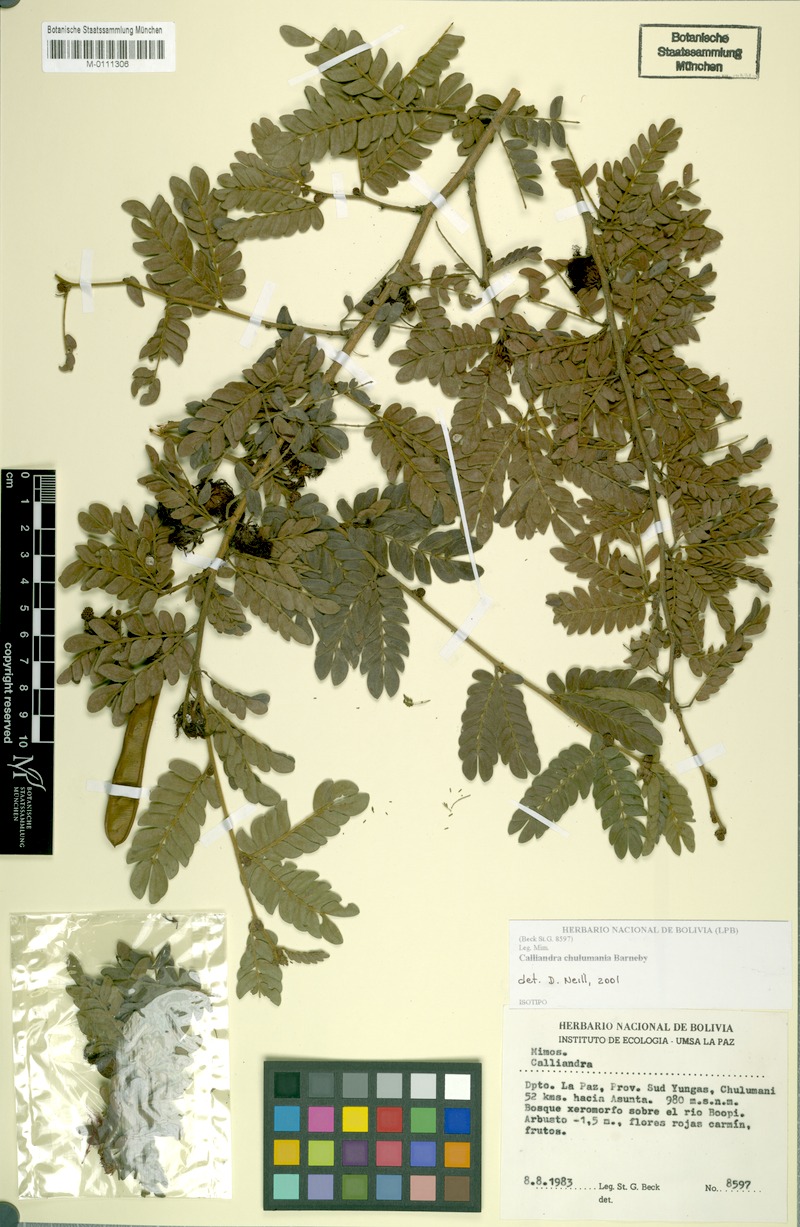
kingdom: Plantae
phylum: Tracheophyta
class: Magnoliopsida
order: Fabales
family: Fabaceae
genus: Calliandra
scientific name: Calliandra chulumania
